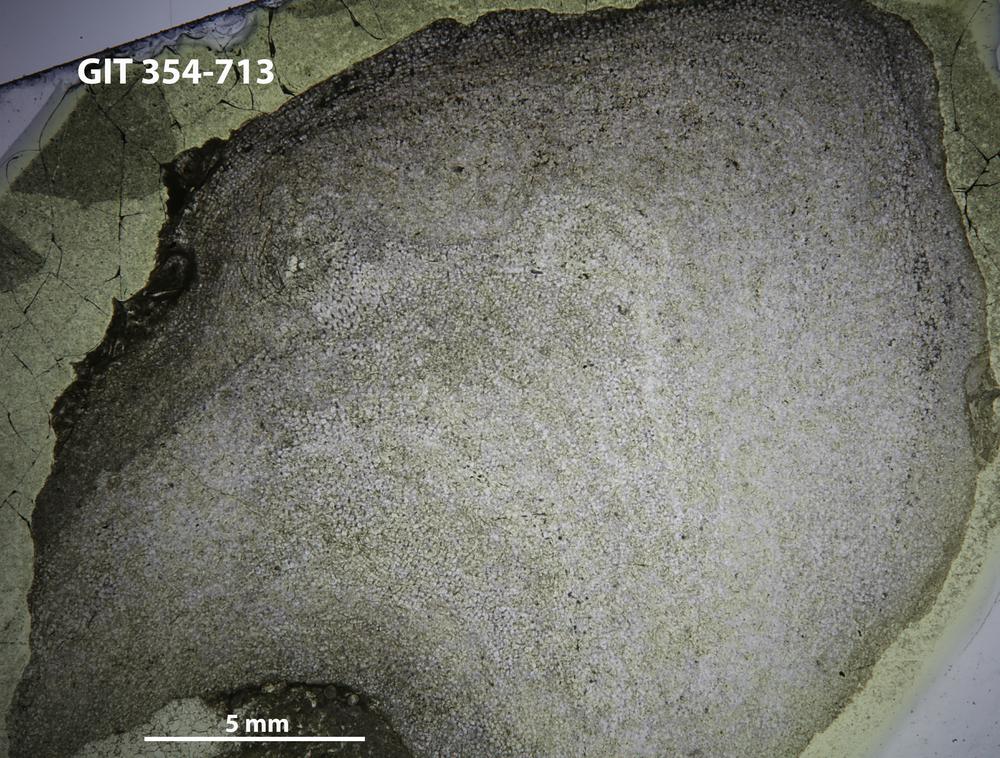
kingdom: Animalia
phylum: Porifera
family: Actinostromatidae
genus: Plectostroma
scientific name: Plectostroma
